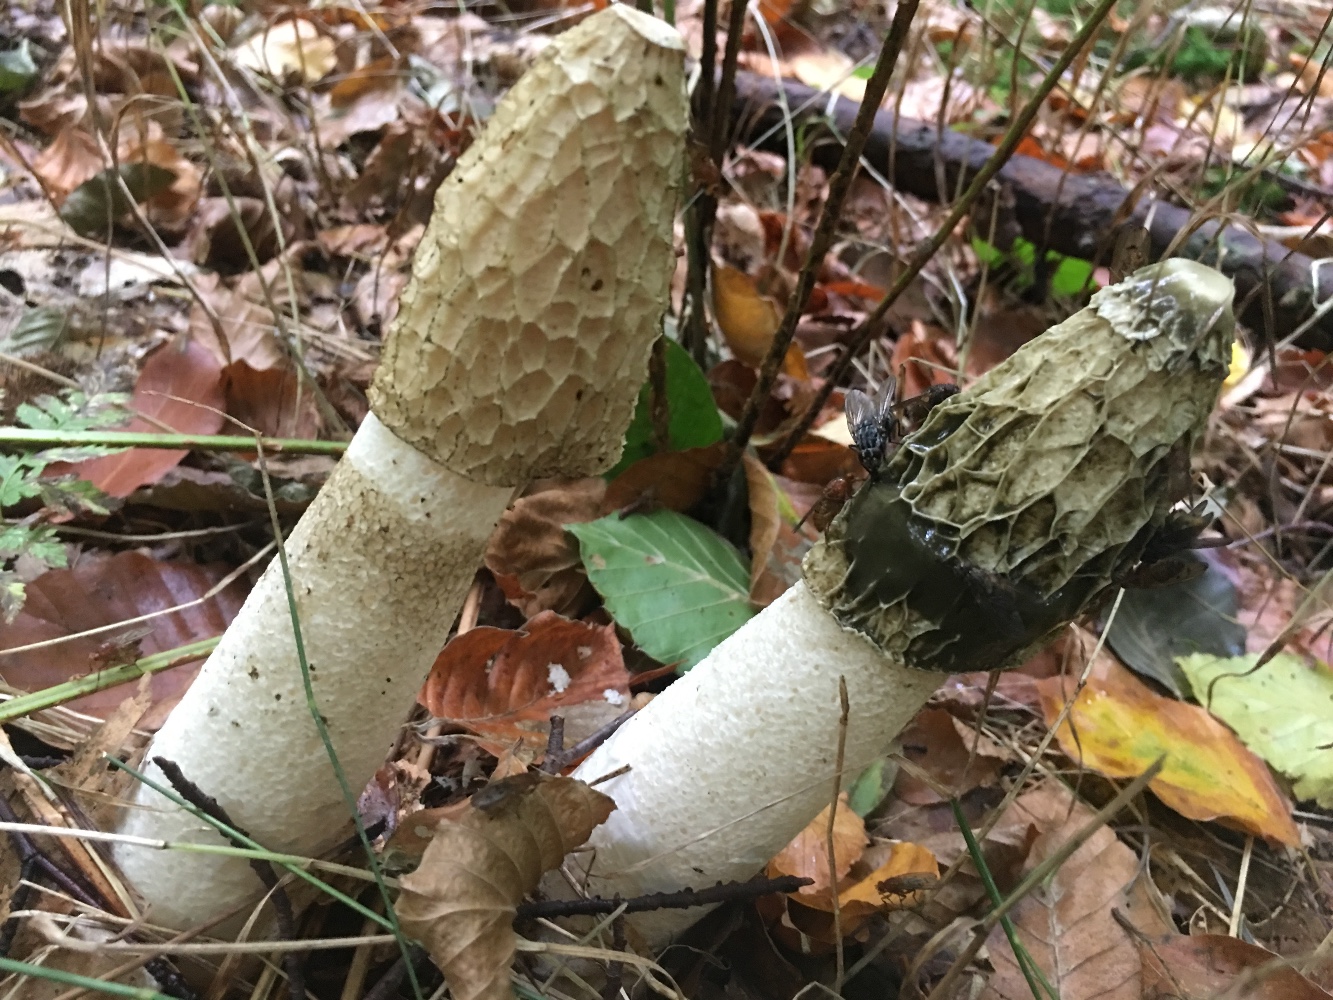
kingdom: Fungi
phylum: Basidiomycota
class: Agaricomycetes
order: Phallales
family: Phallaceae
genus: Phallus
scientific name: Phallus impudicus
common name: almindelig stinksvamp
